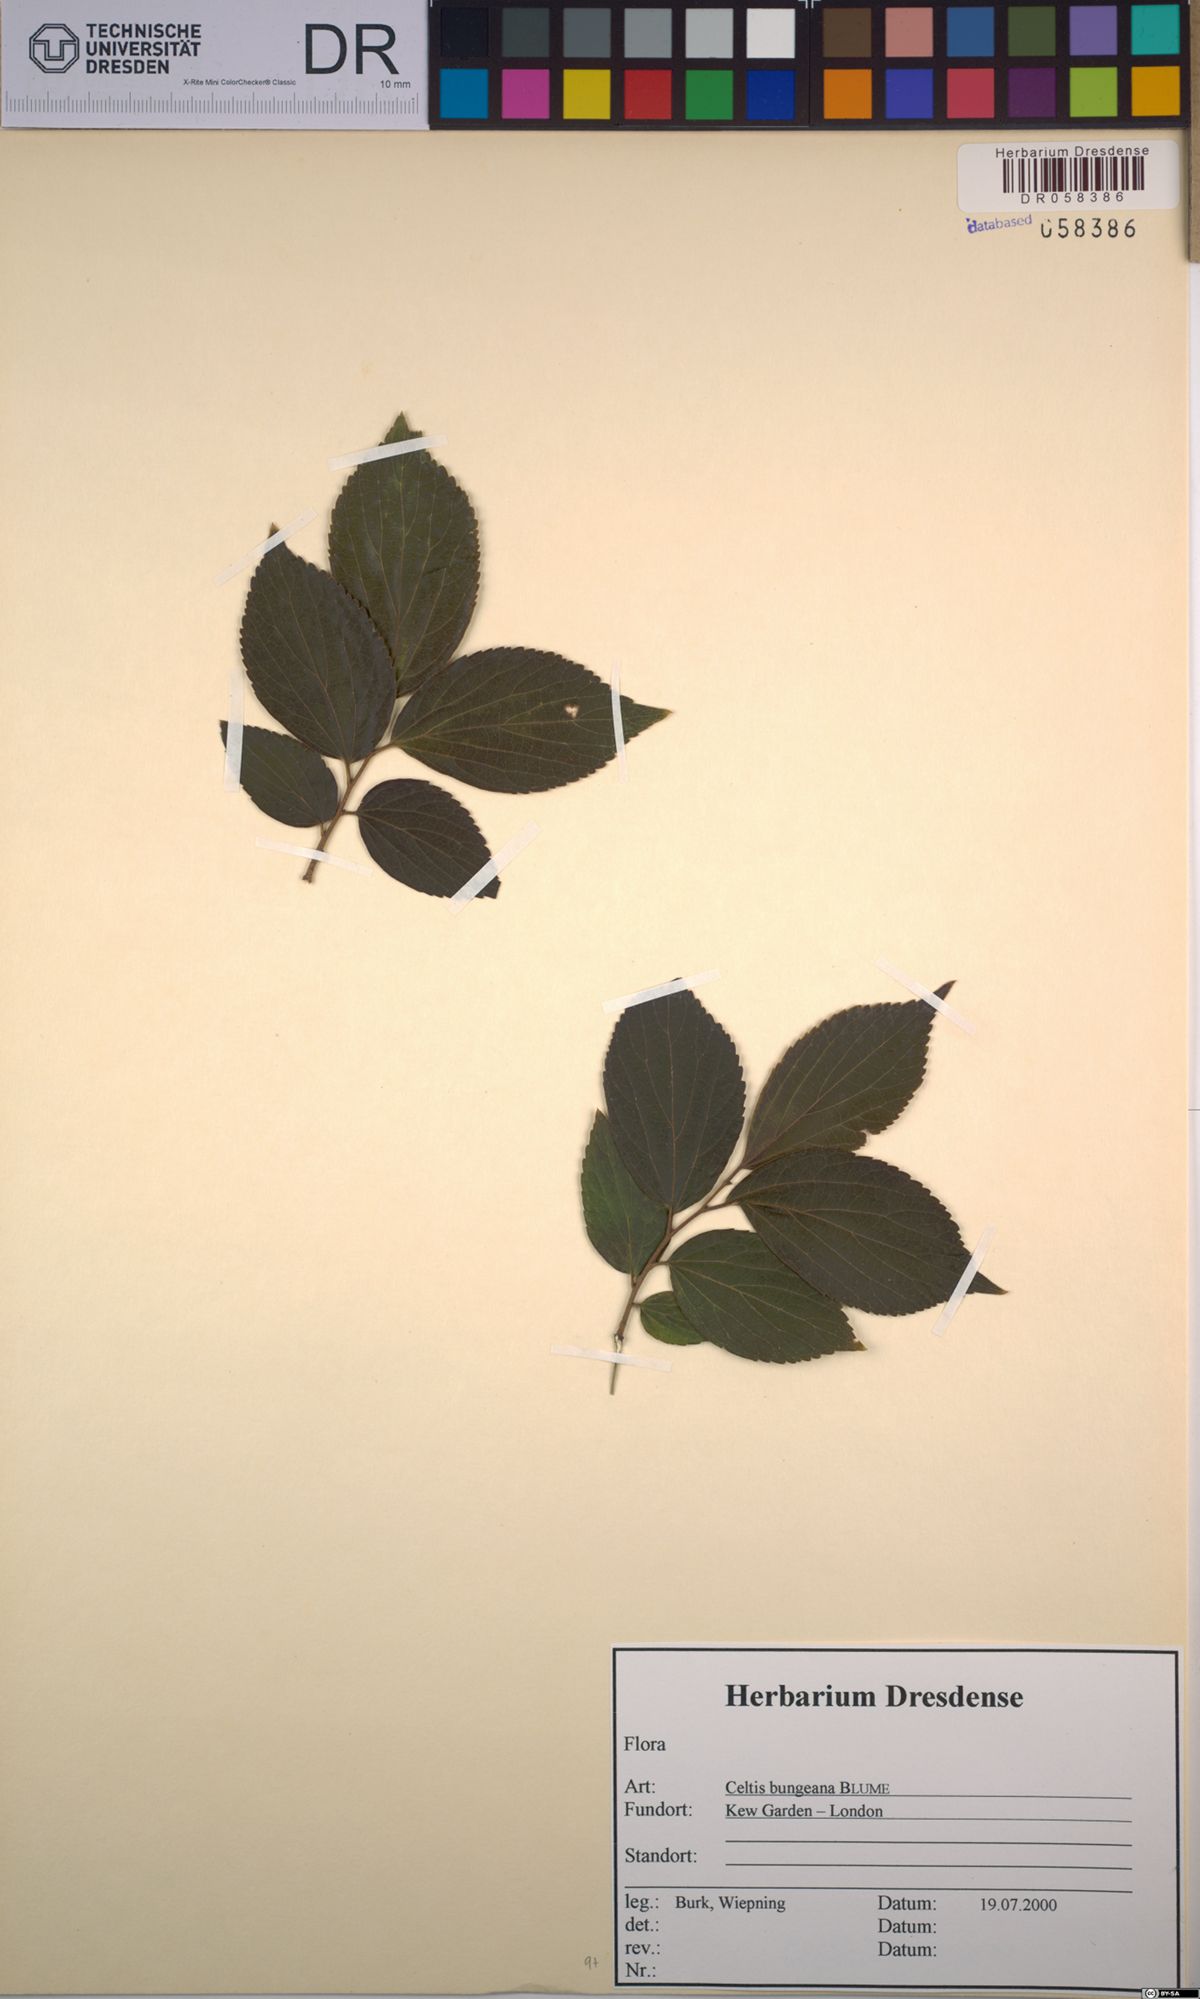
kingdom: Plantae
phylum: Tracheophyta
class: Magnoliopsida
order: Rosales
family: Cannabaceae
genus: Celtis
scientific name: Celtis bungeana
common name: Bunge's hackberry
